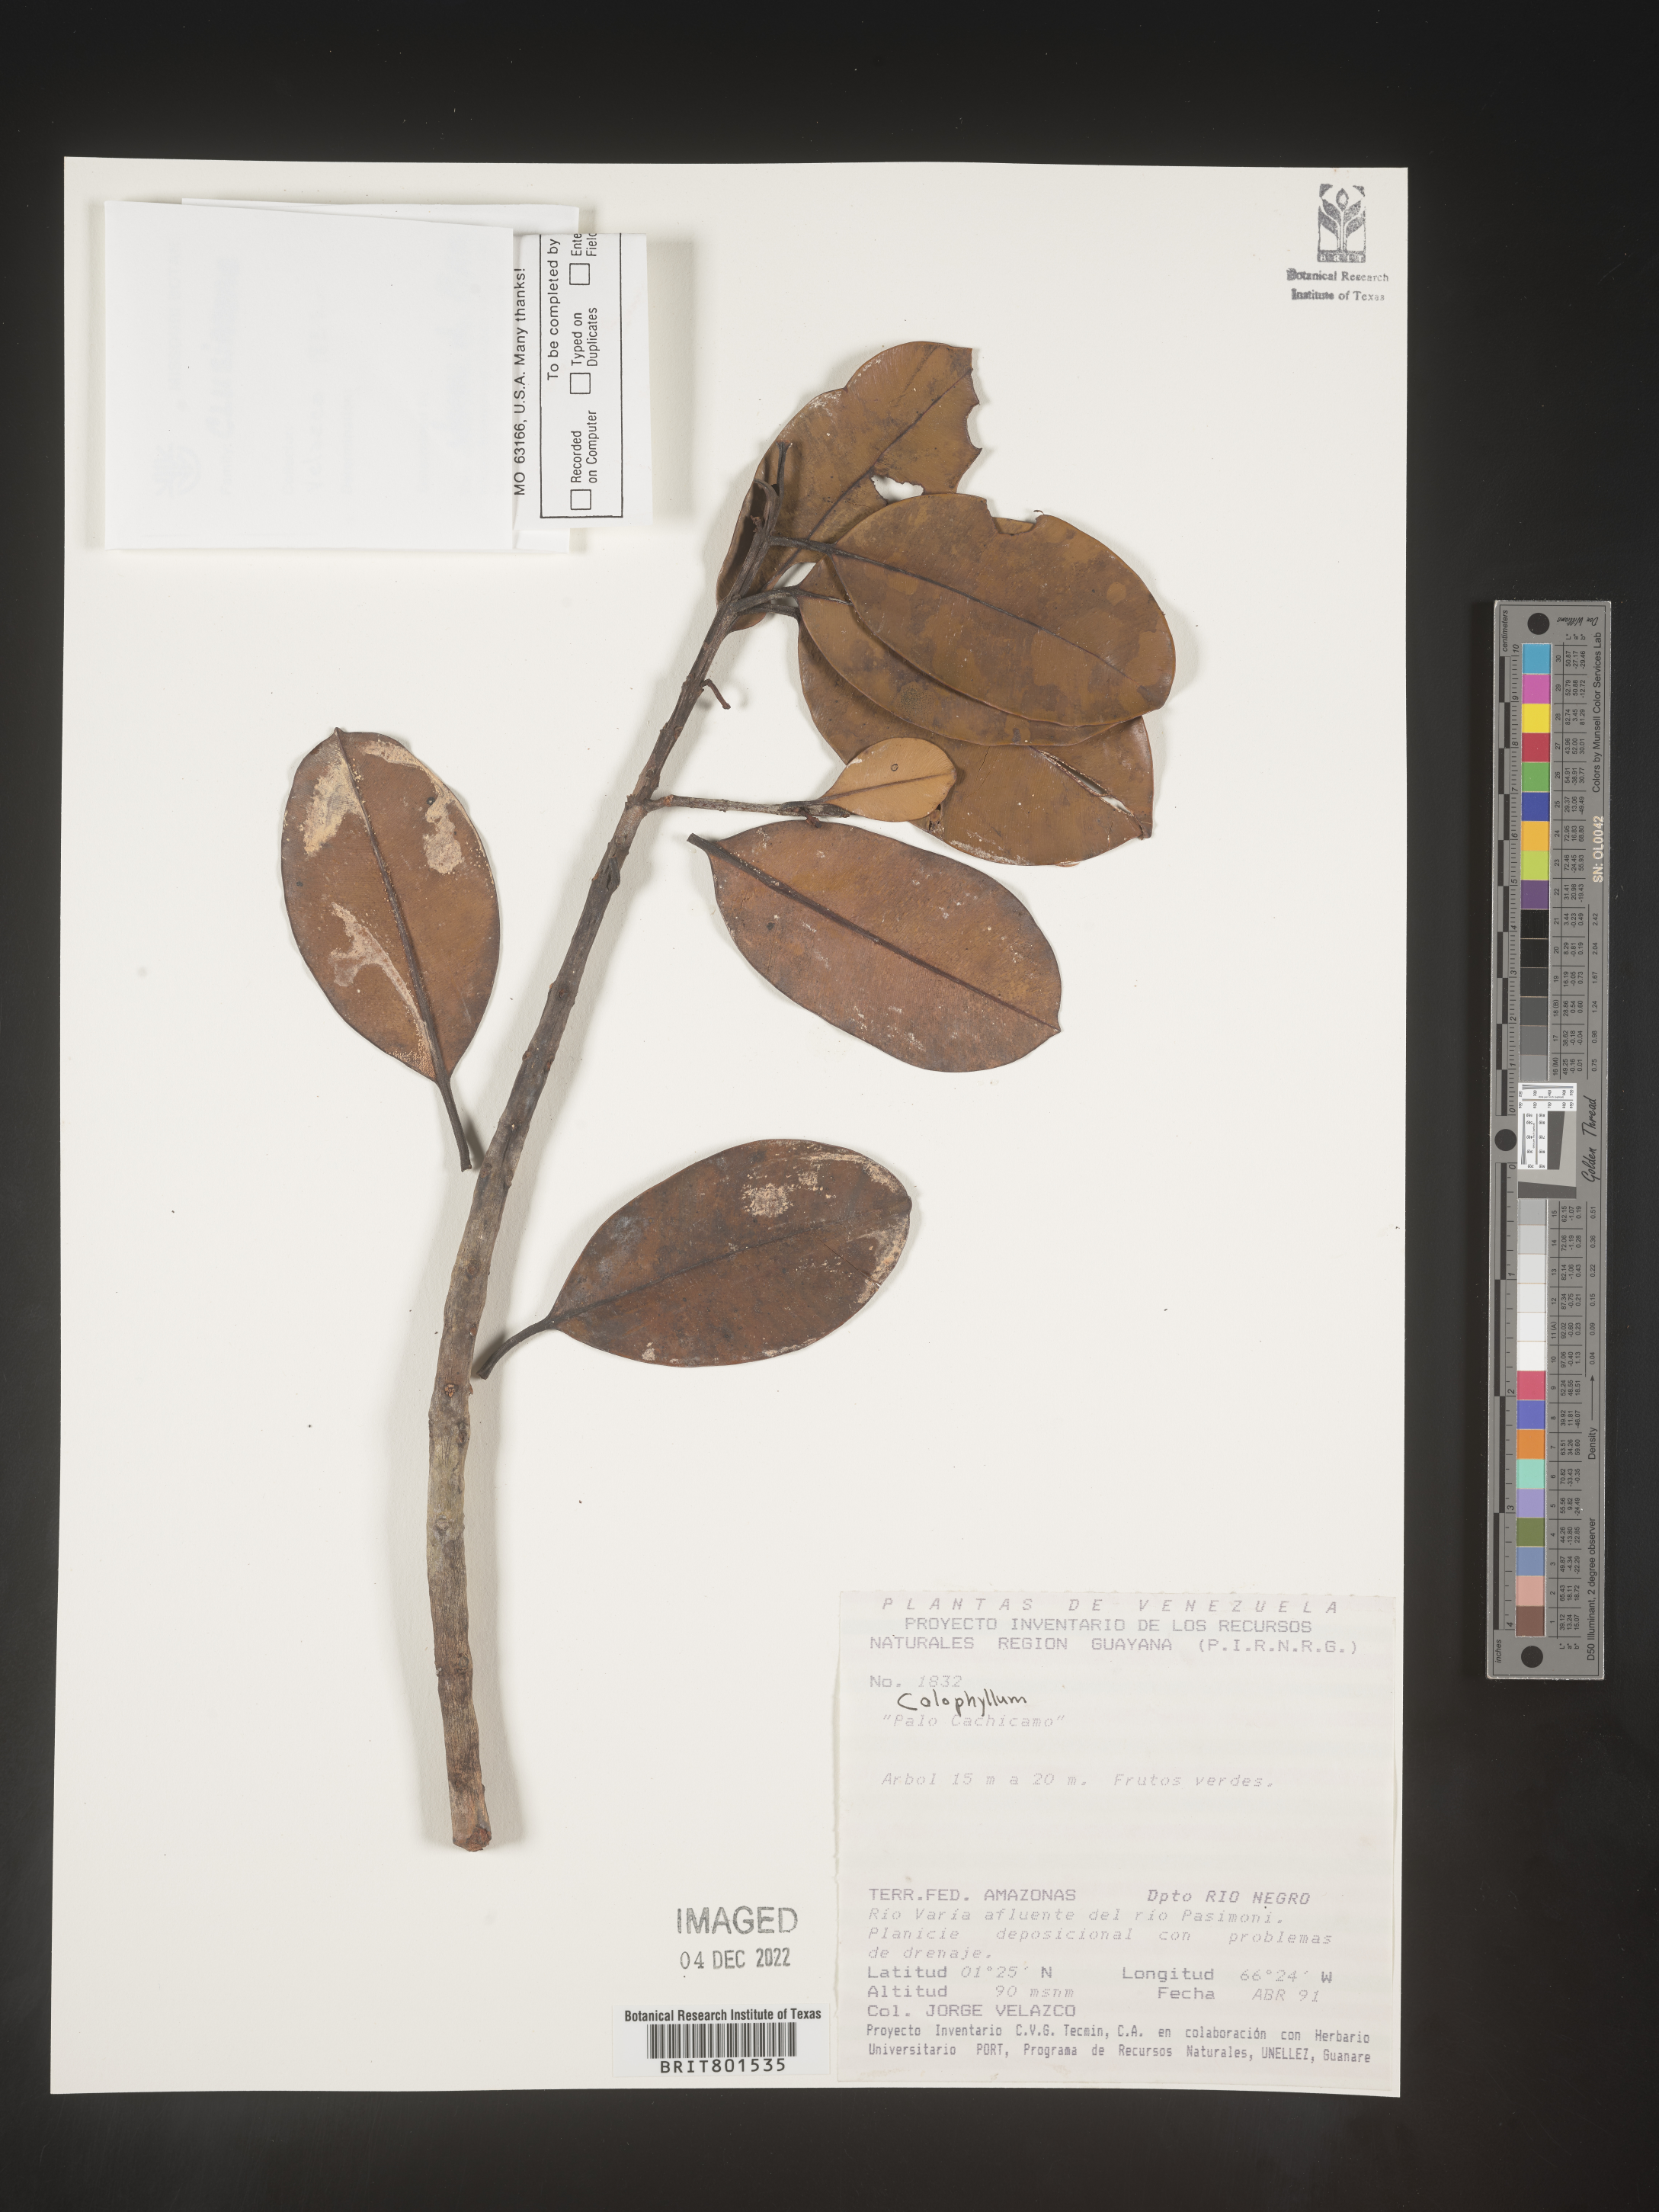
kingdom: Plantae
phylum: Tracheophyta
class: Magnoliopsida
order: Malpighiales
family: Calophyllaceae
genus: Calophyllum
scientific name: Calophyllum
